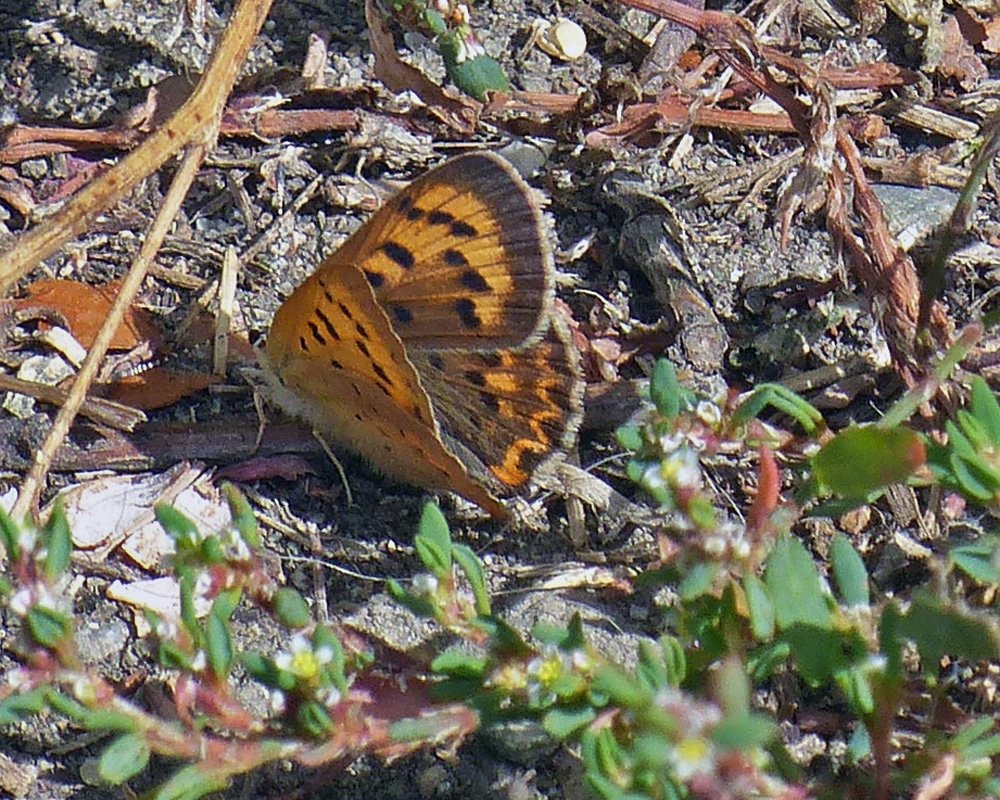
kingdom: Animalia
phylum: Arthropoda
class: Insecta
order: Lepidoptera
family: Sesiidae
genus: Sesia
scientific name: Sesia Lycaena helloides
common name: Purplish Copper
